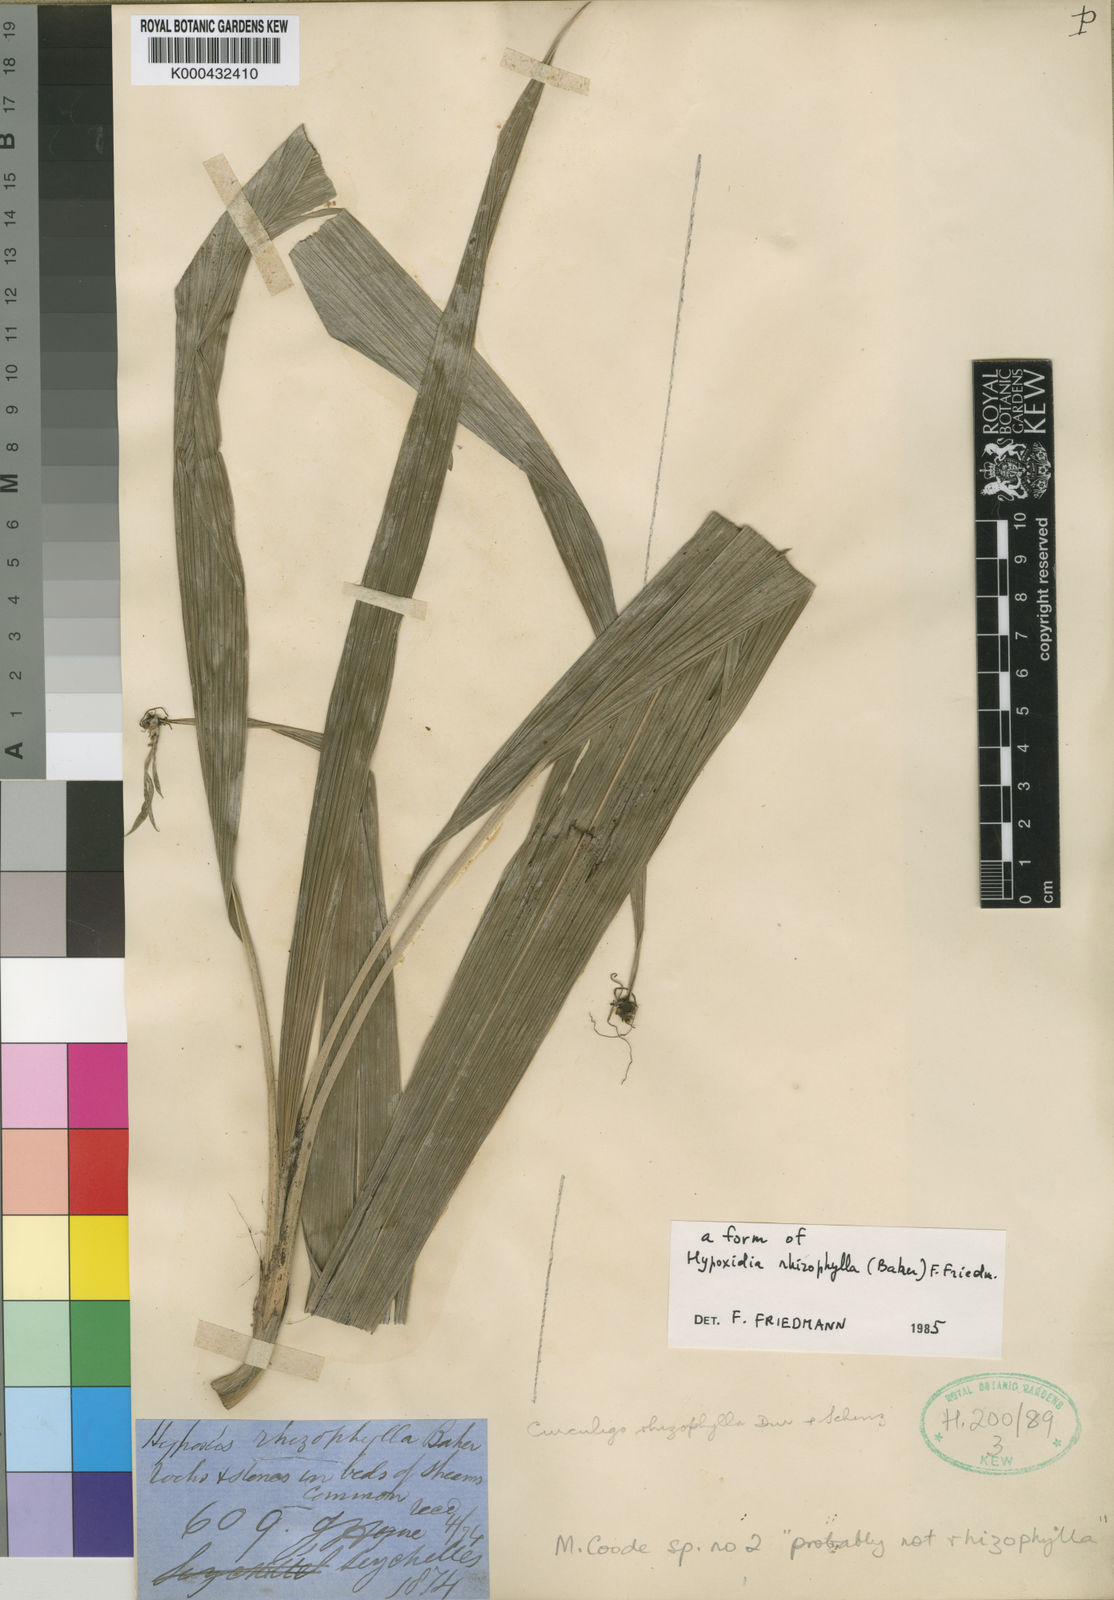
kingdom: Plantae
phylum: Tracheophyta
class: Liliopsida
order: Asparagales
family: Hypoxidaceae
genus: Curculigo
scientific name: Curculigo rhizophylla
